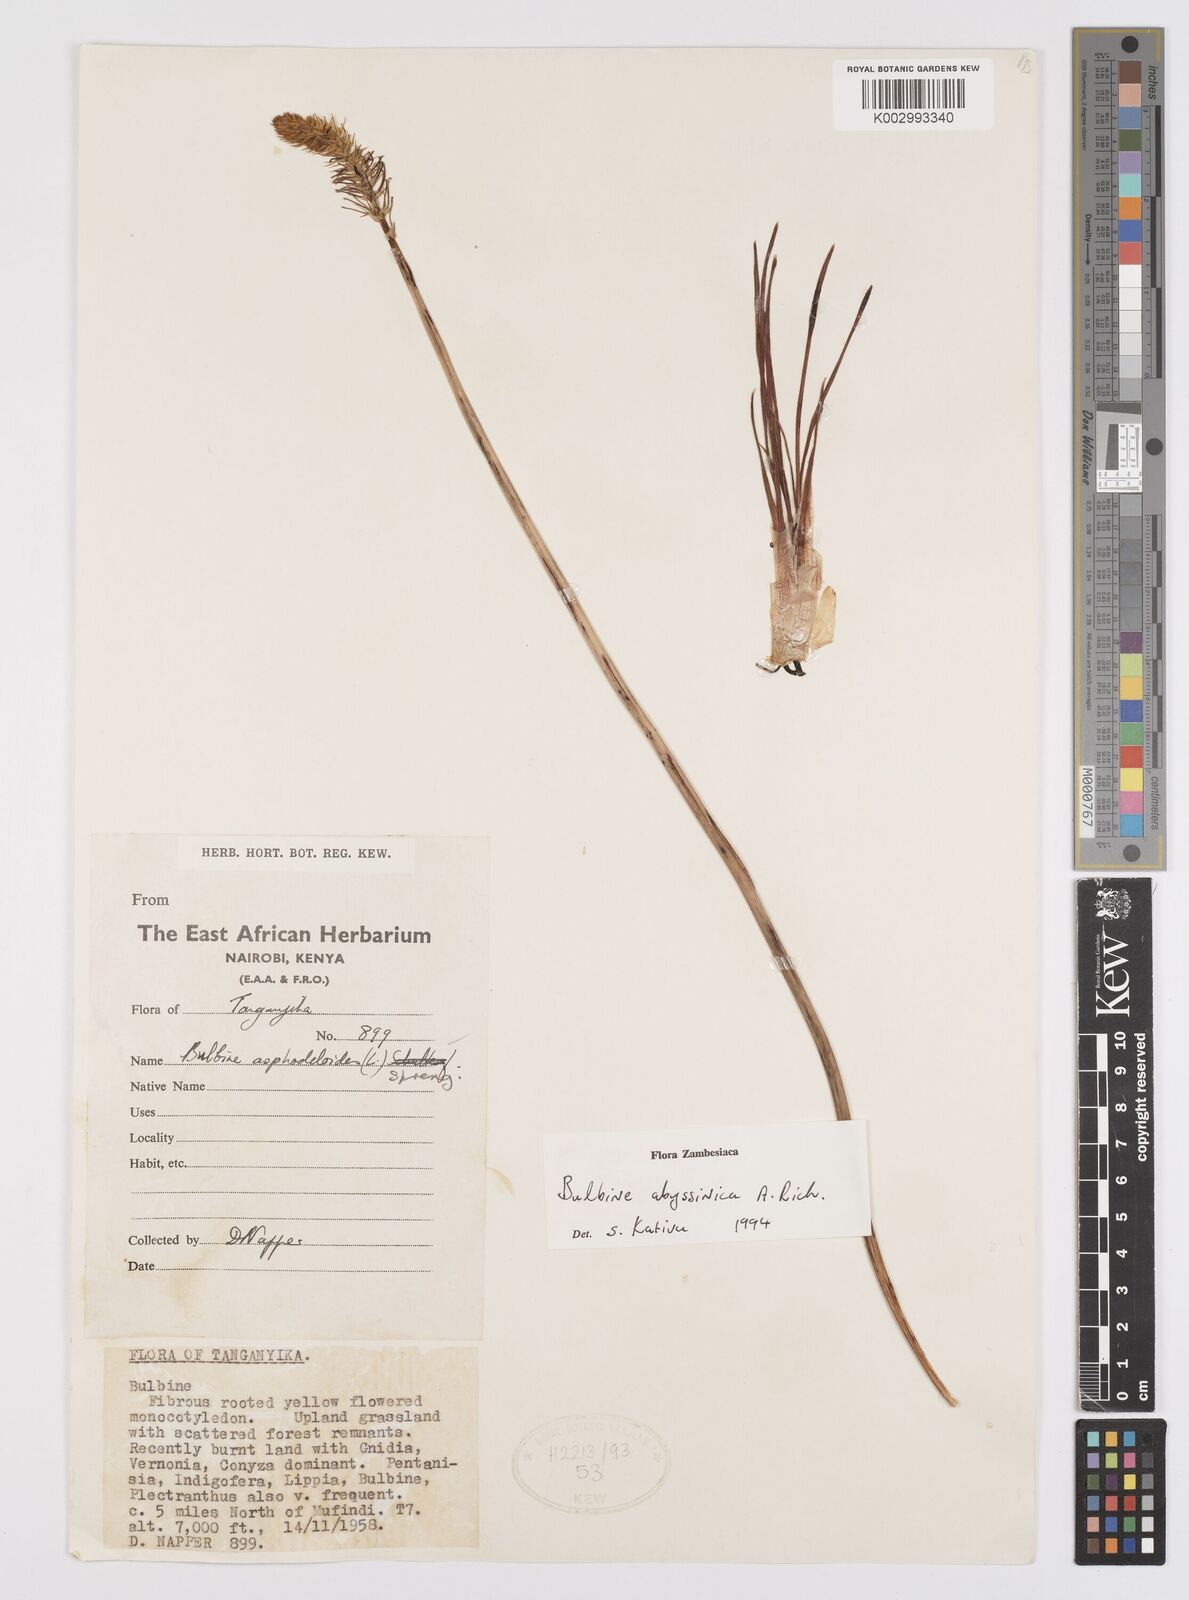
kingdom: Plantae
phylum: Tracheophyta
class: Liliopsida
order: Asparagales
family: Asphodelaceae
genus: Bulbine
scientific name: Bulbine abyssinica
